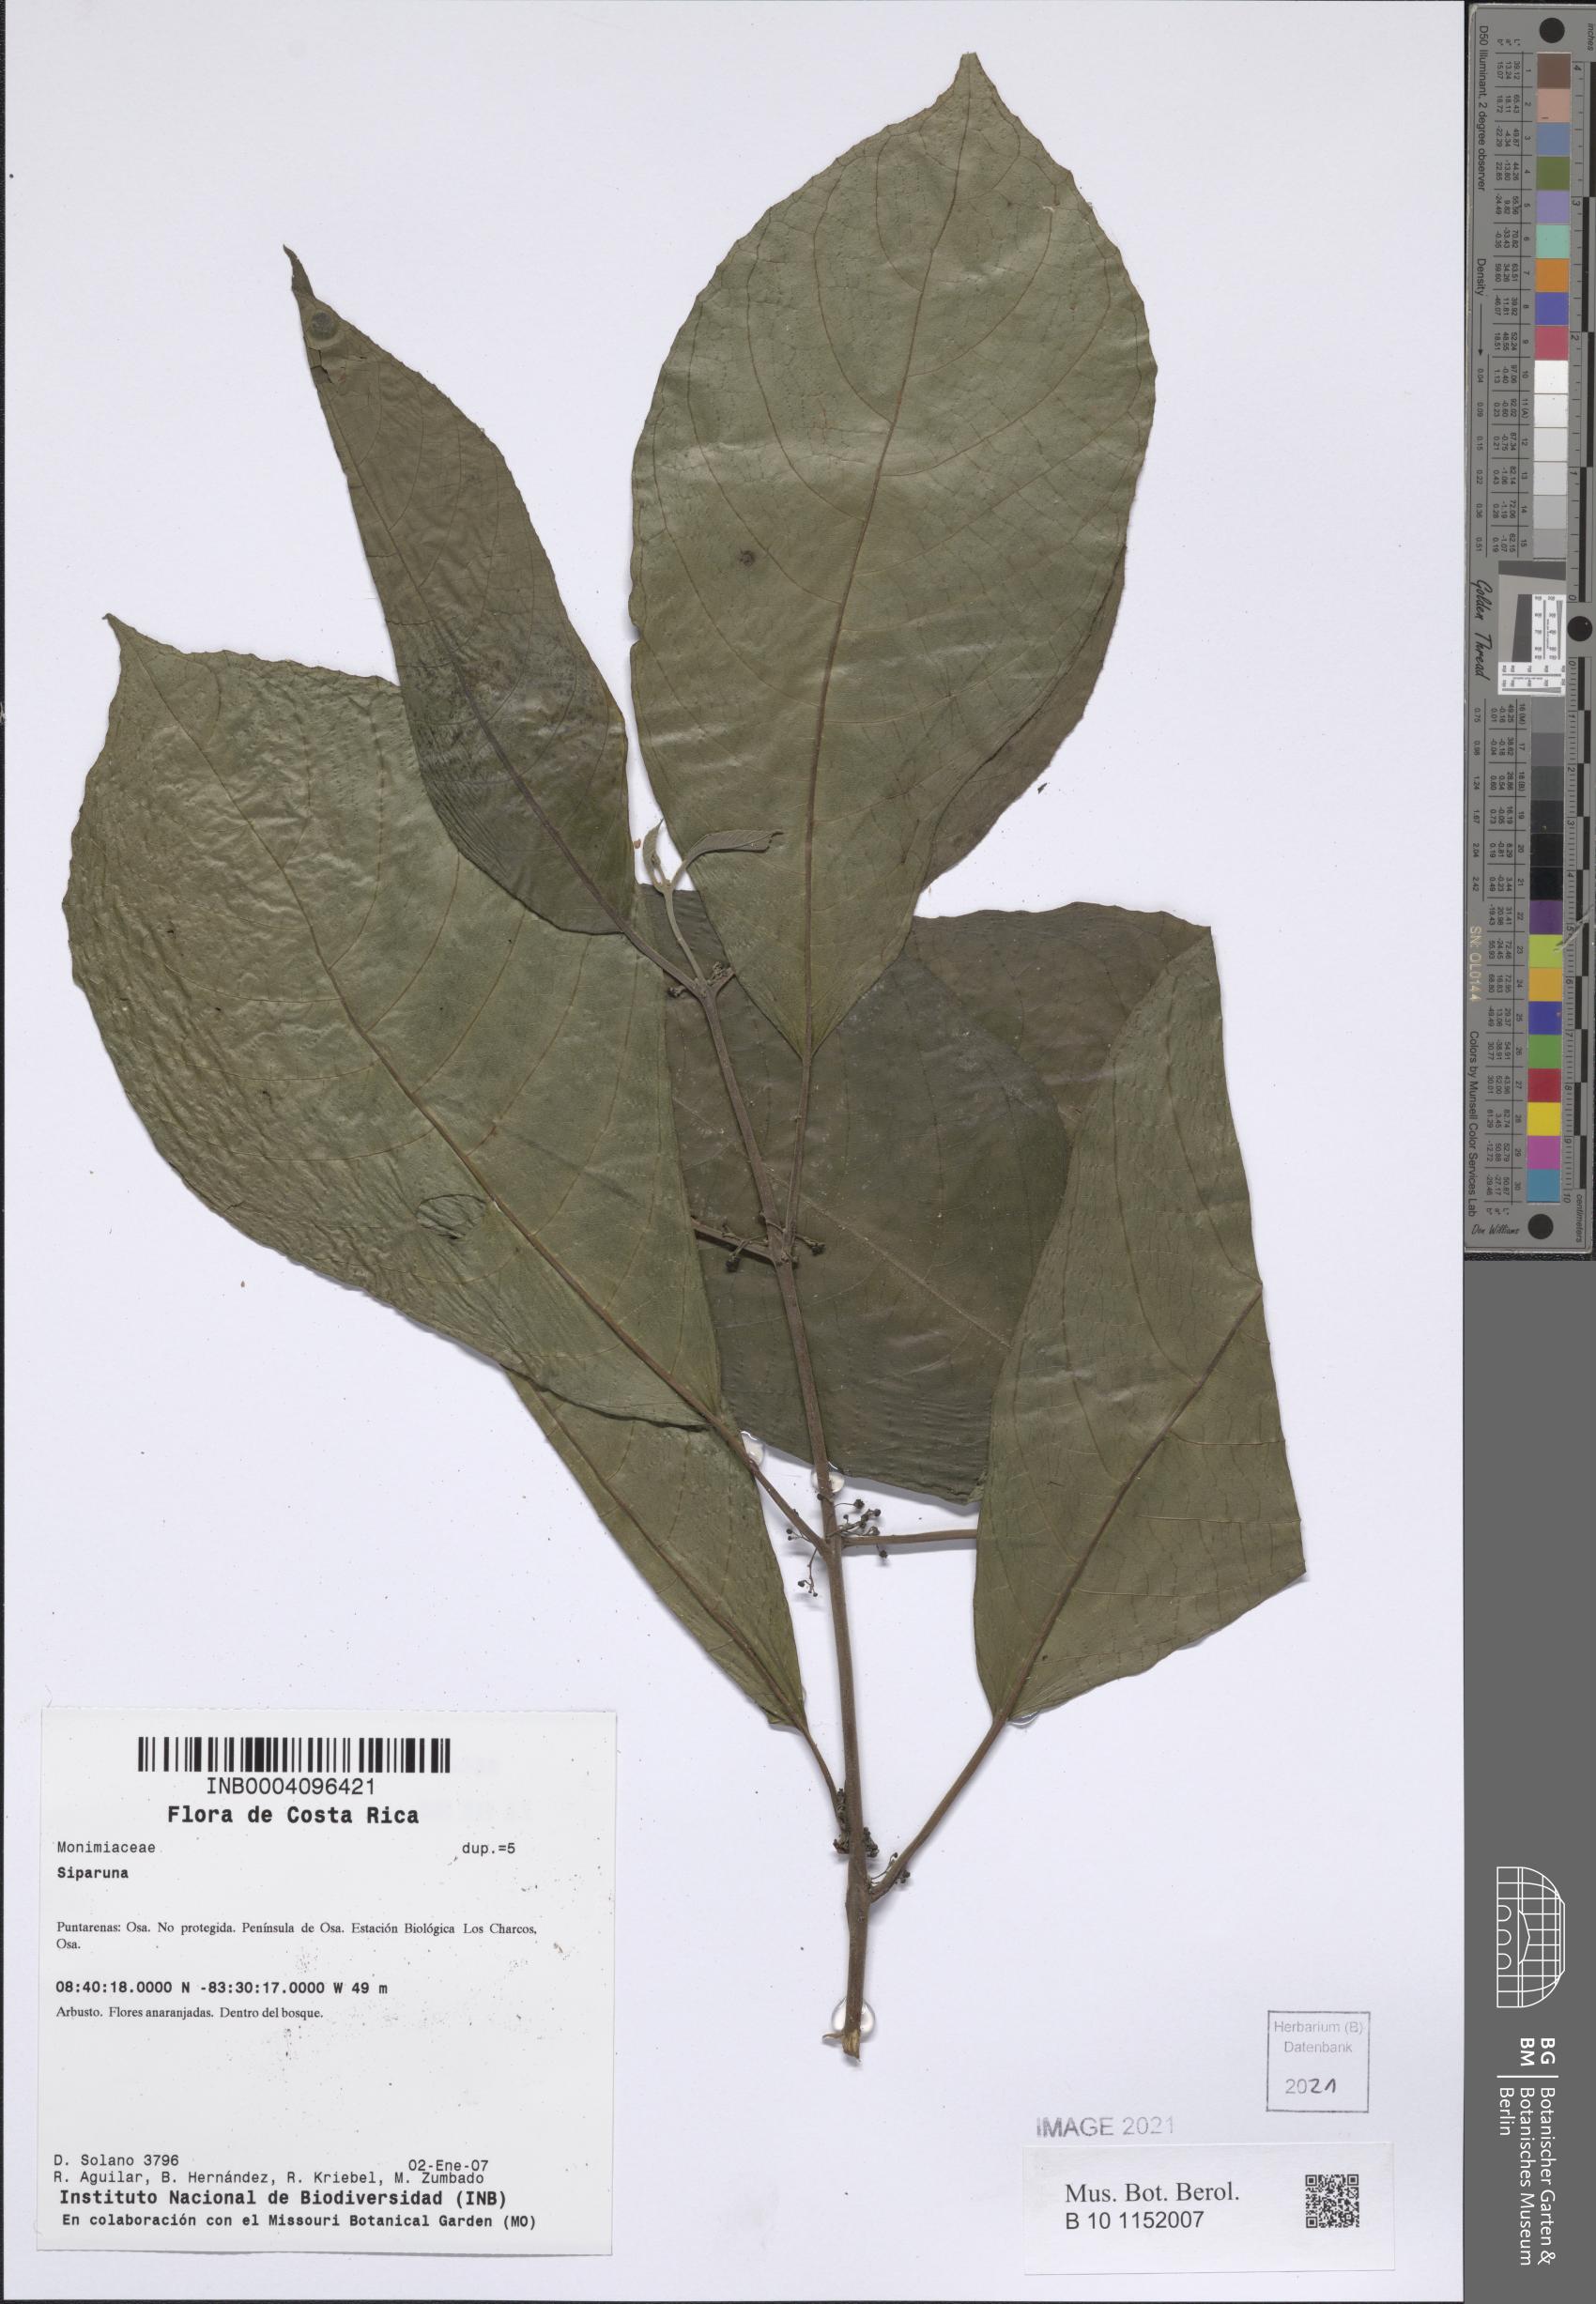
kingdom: Plantae
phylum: Tracheophyta
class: Magnoliopsida
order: Laurales
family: Siparunaceae
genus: Siparuna
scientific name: Siparuna
